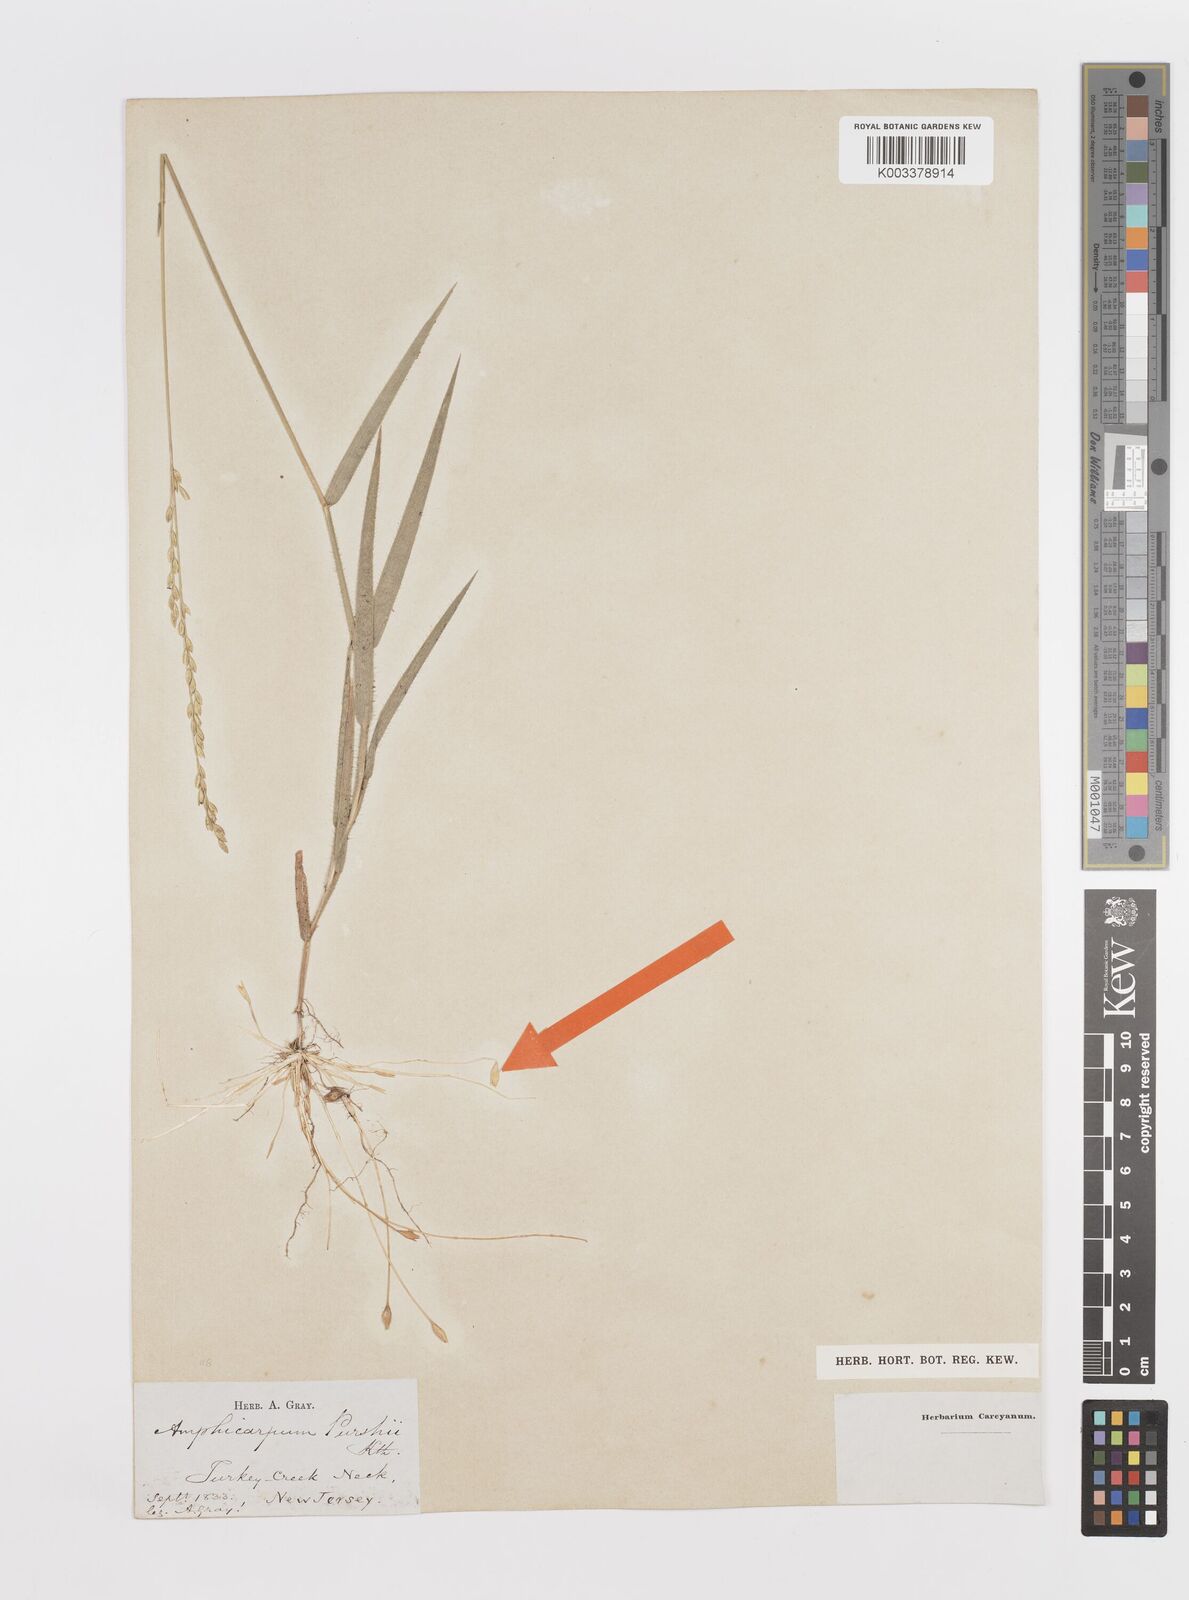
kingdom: Plantae
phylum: Tracheophyta
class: Liliopsida
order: Poales
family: Poaceae
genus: Amphicarpum
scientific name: Amphicarpum
